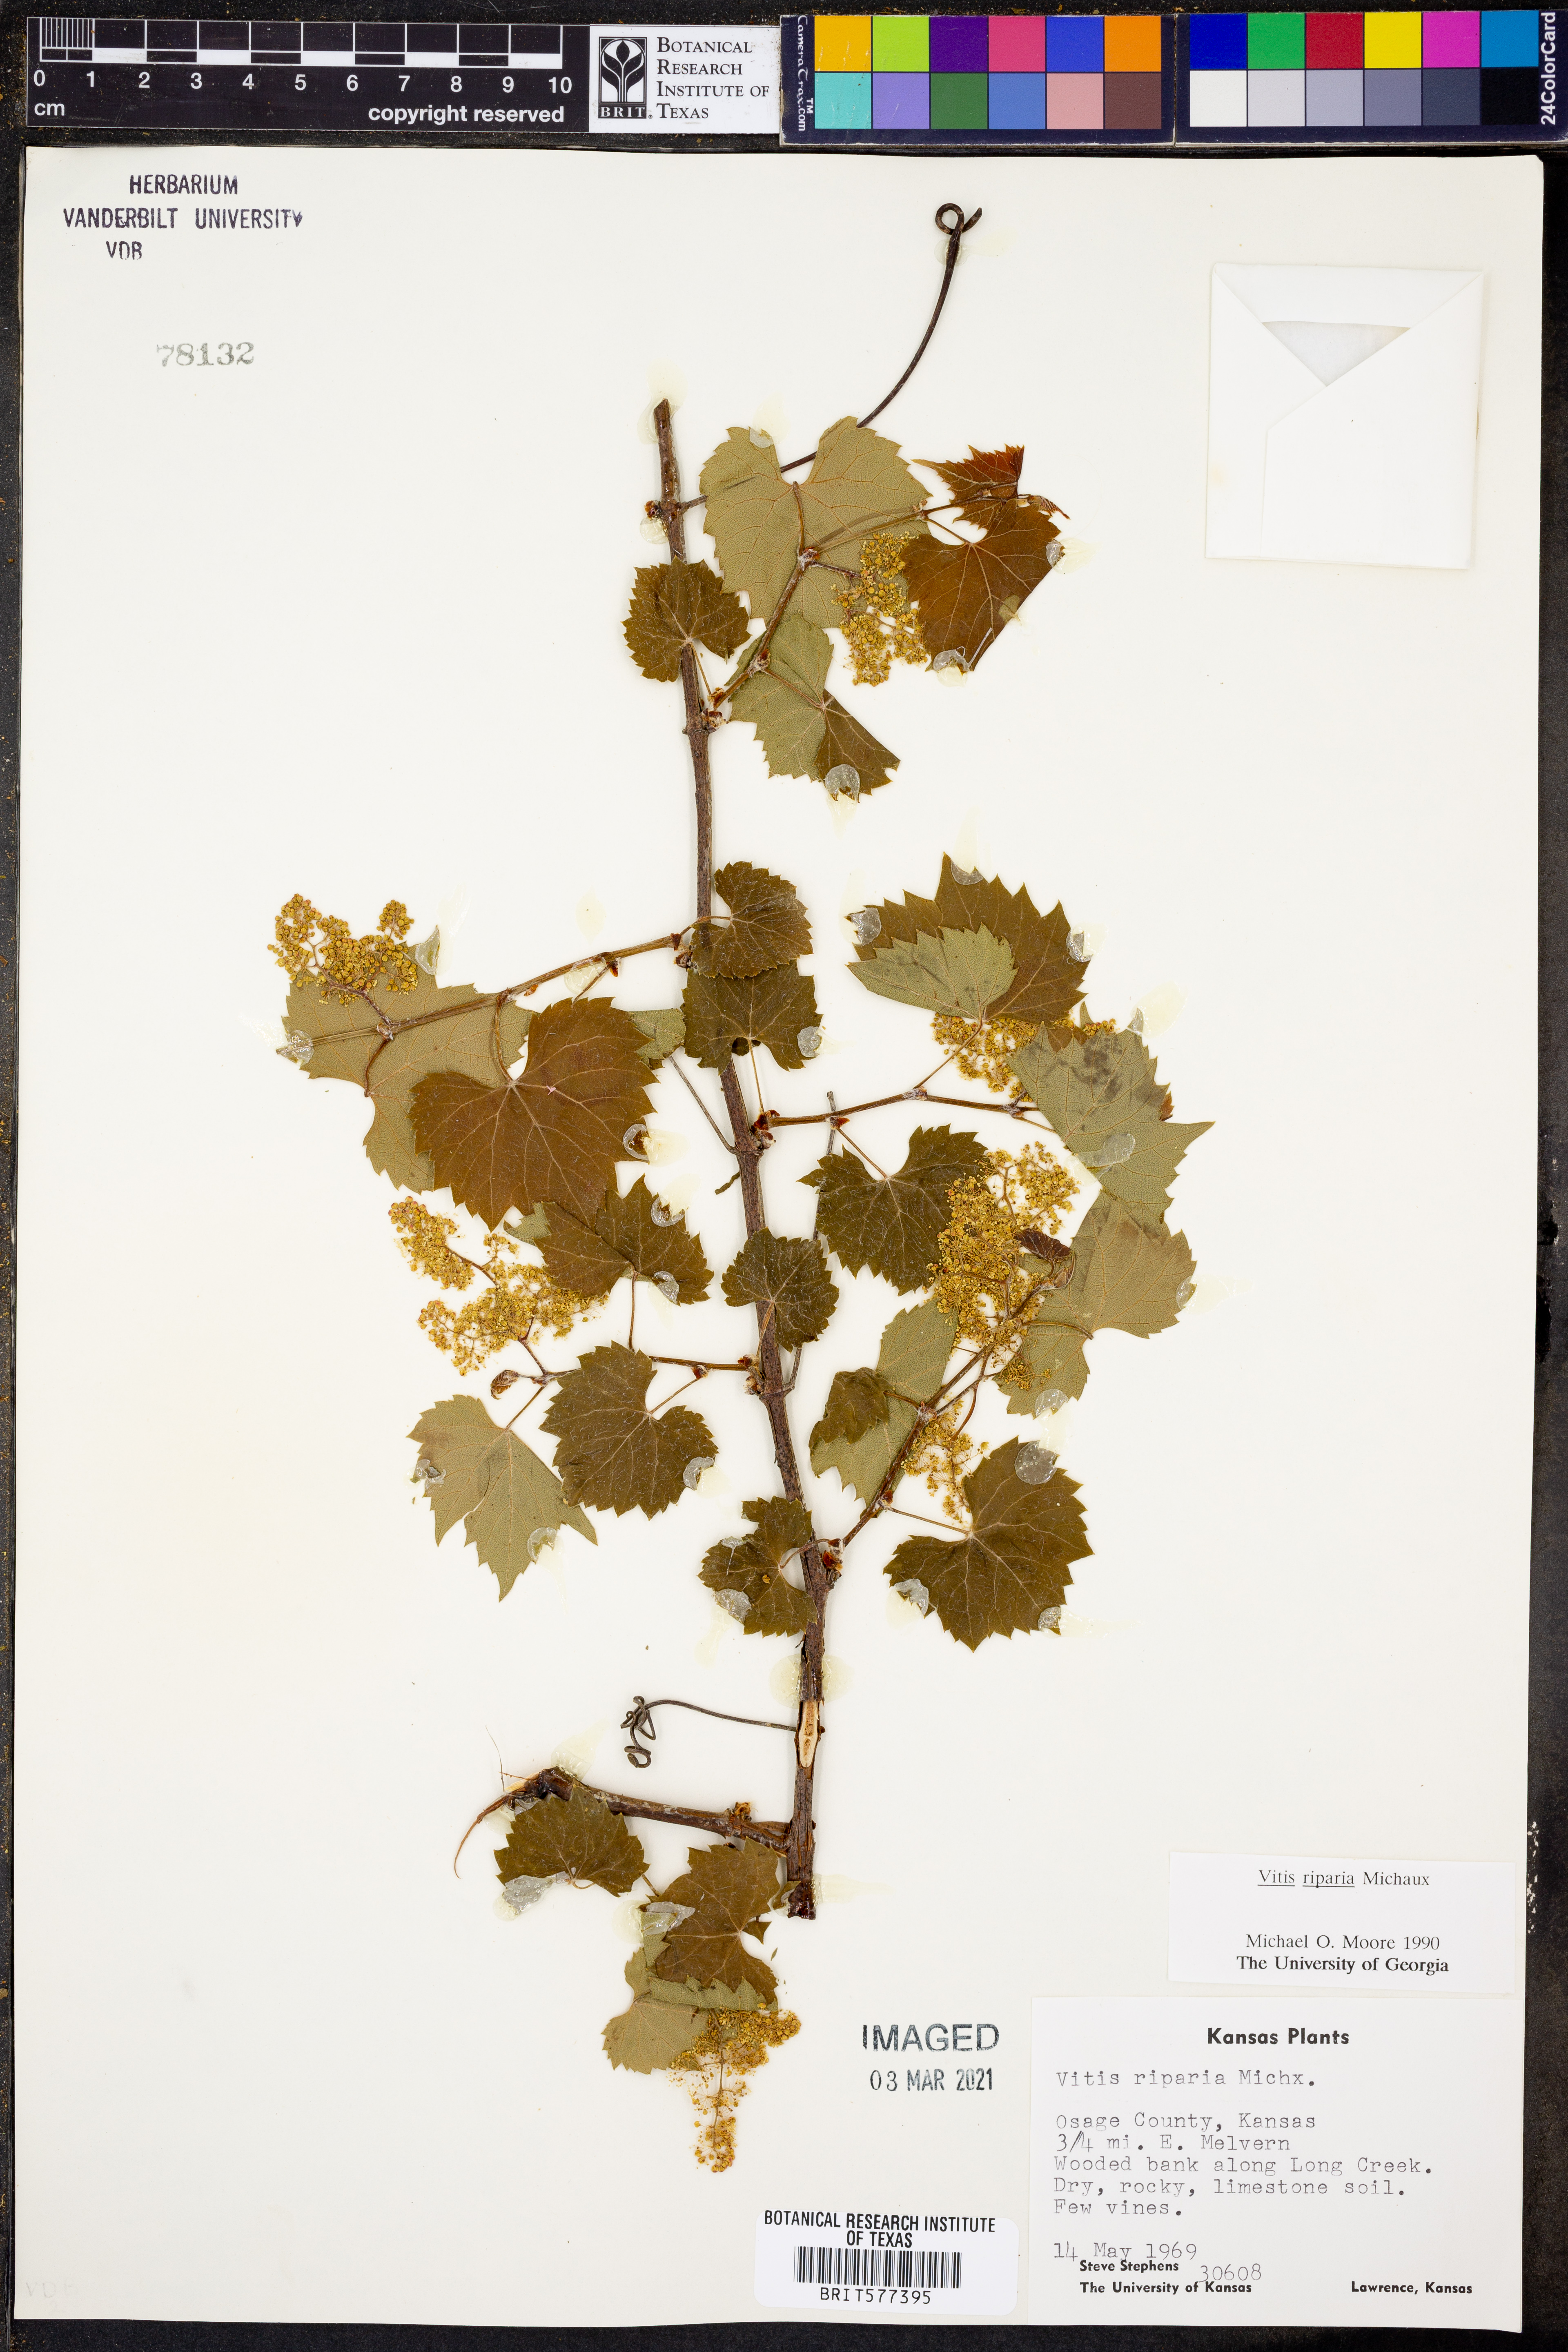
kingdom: Plantae
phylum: Tracheophyta
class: Magnoliopsida
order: Vitales
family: Vitaceae
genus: Vitis
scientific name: Vitis riparia
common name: Frost grape
